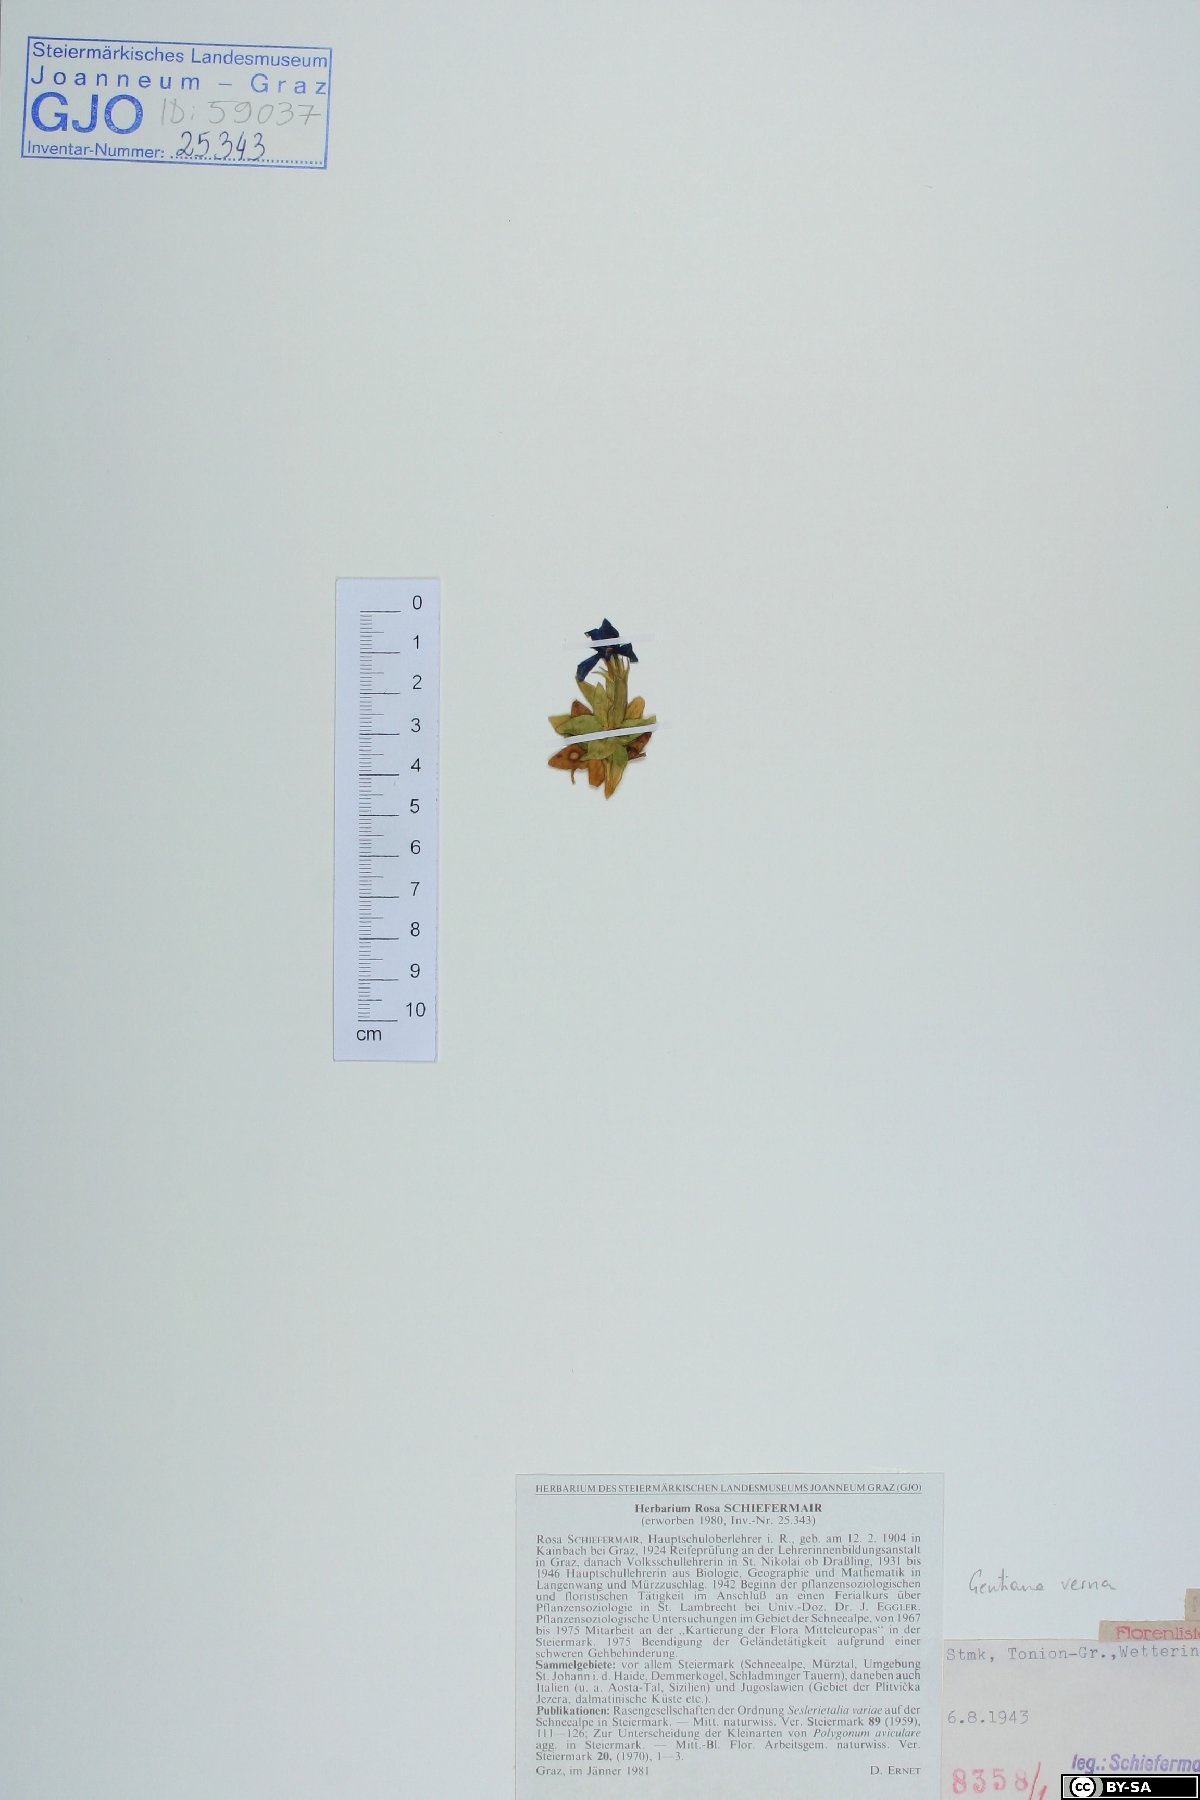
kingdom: Plantae
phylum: Tracheophyta
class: Magnoliopsida
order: Gentianales
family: Gentianaceae
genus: Gentiana
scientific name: Gentiana verna
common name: Spring gentian
